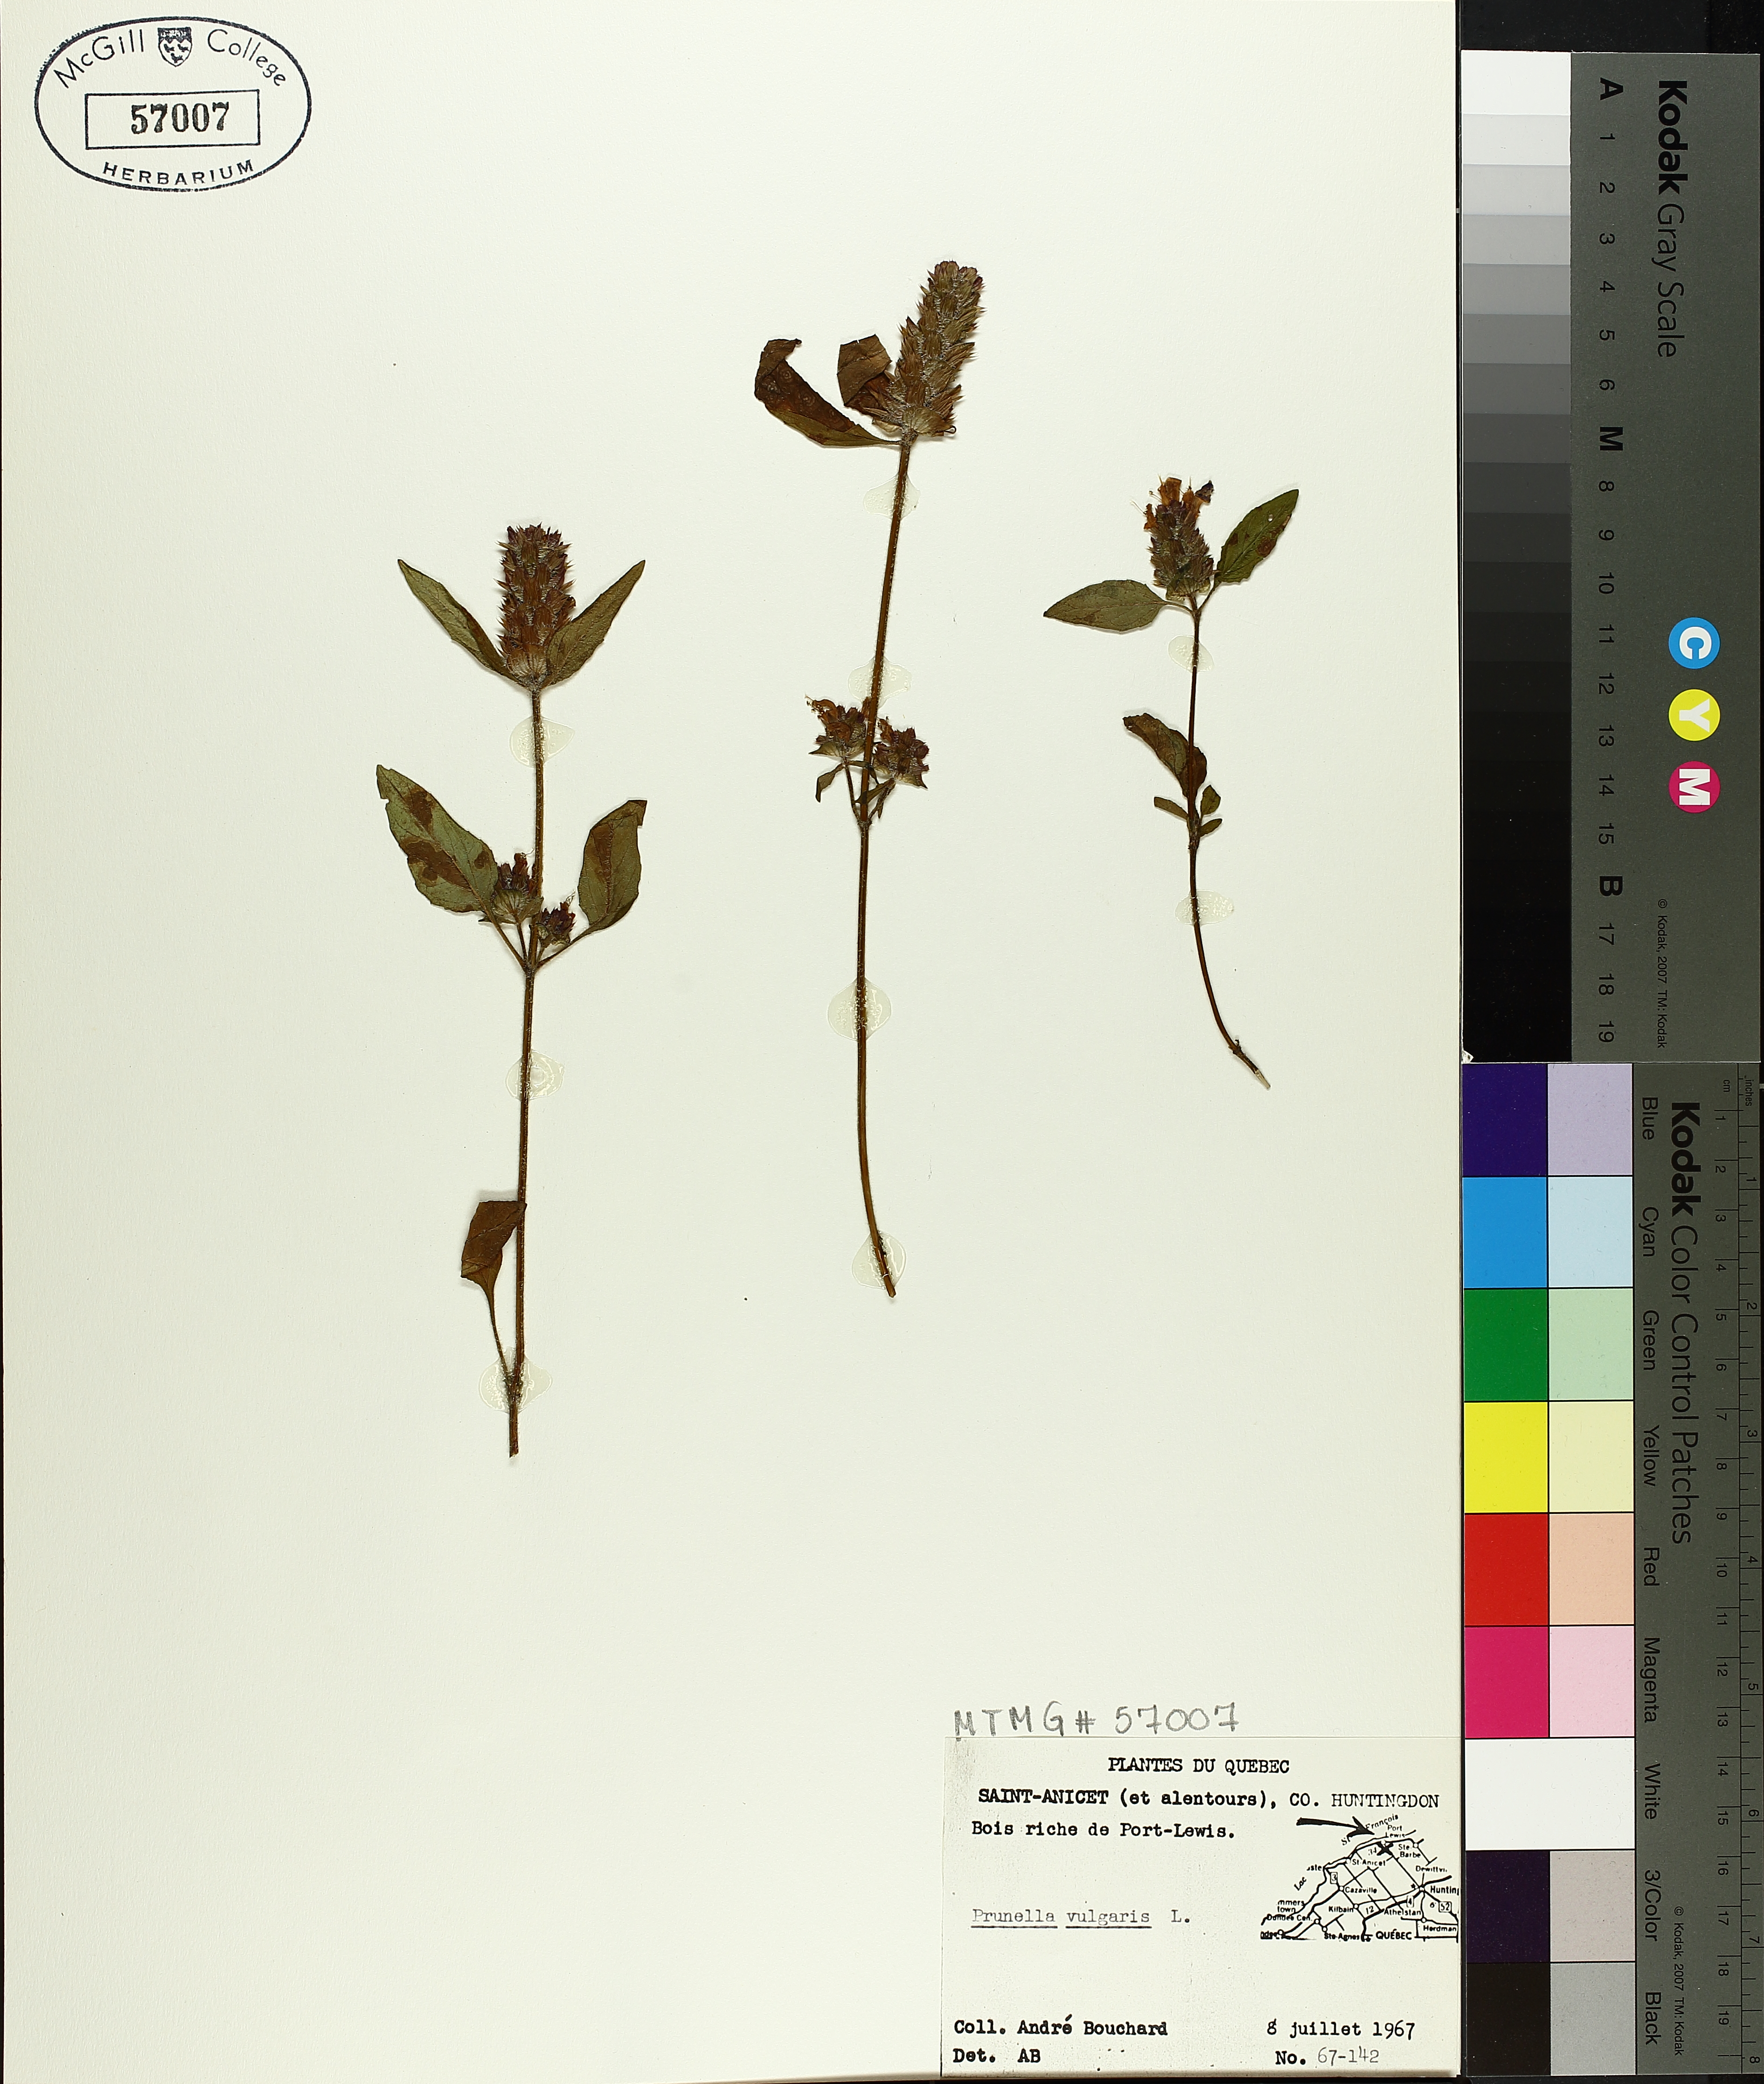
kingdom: Plantae
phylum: Tracheophyta
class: Magnoliopsida
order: Lamiales
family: Lamiaceae
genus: Prunella
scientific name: Prunella vulgaris
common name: Heal-all
